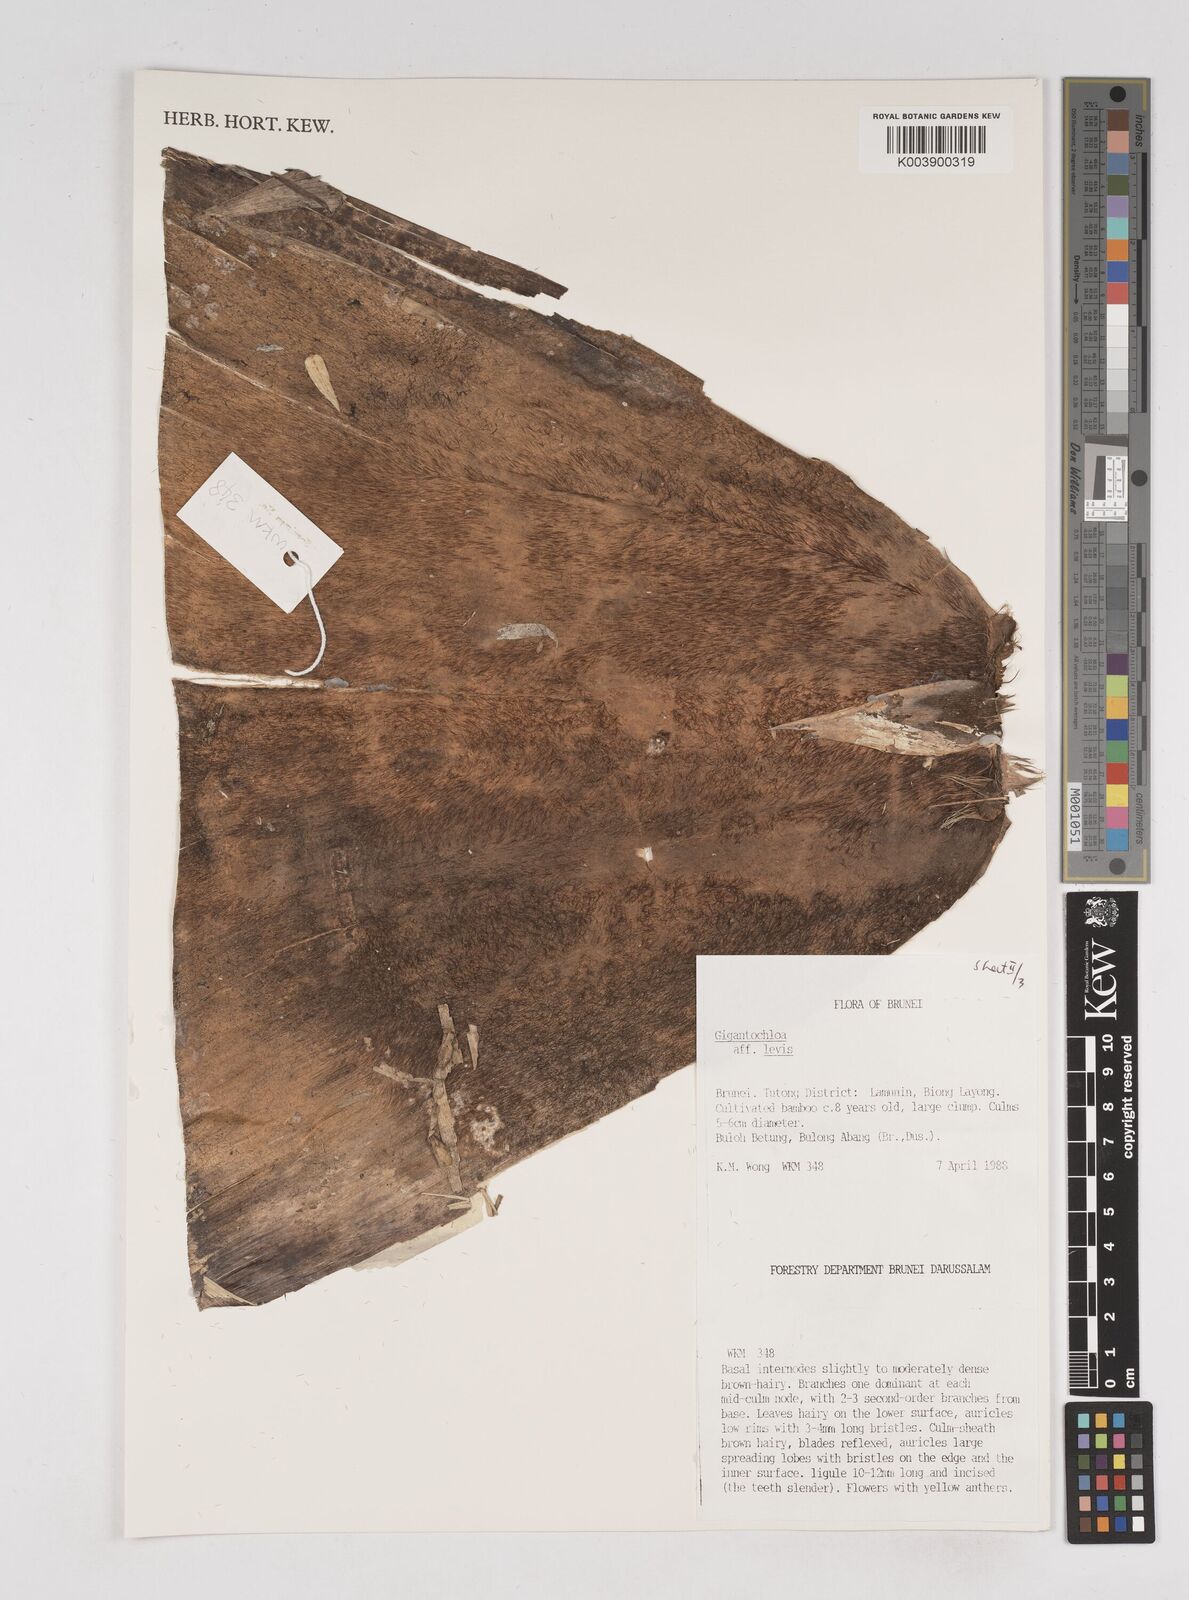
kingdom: Plantae
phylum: Tracheophyta
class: Liliopsida
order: Poales
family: Poaceae
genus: Gigantochloa
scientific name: Gigantochloa levis
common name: Smooth-shoot gigantochloa
